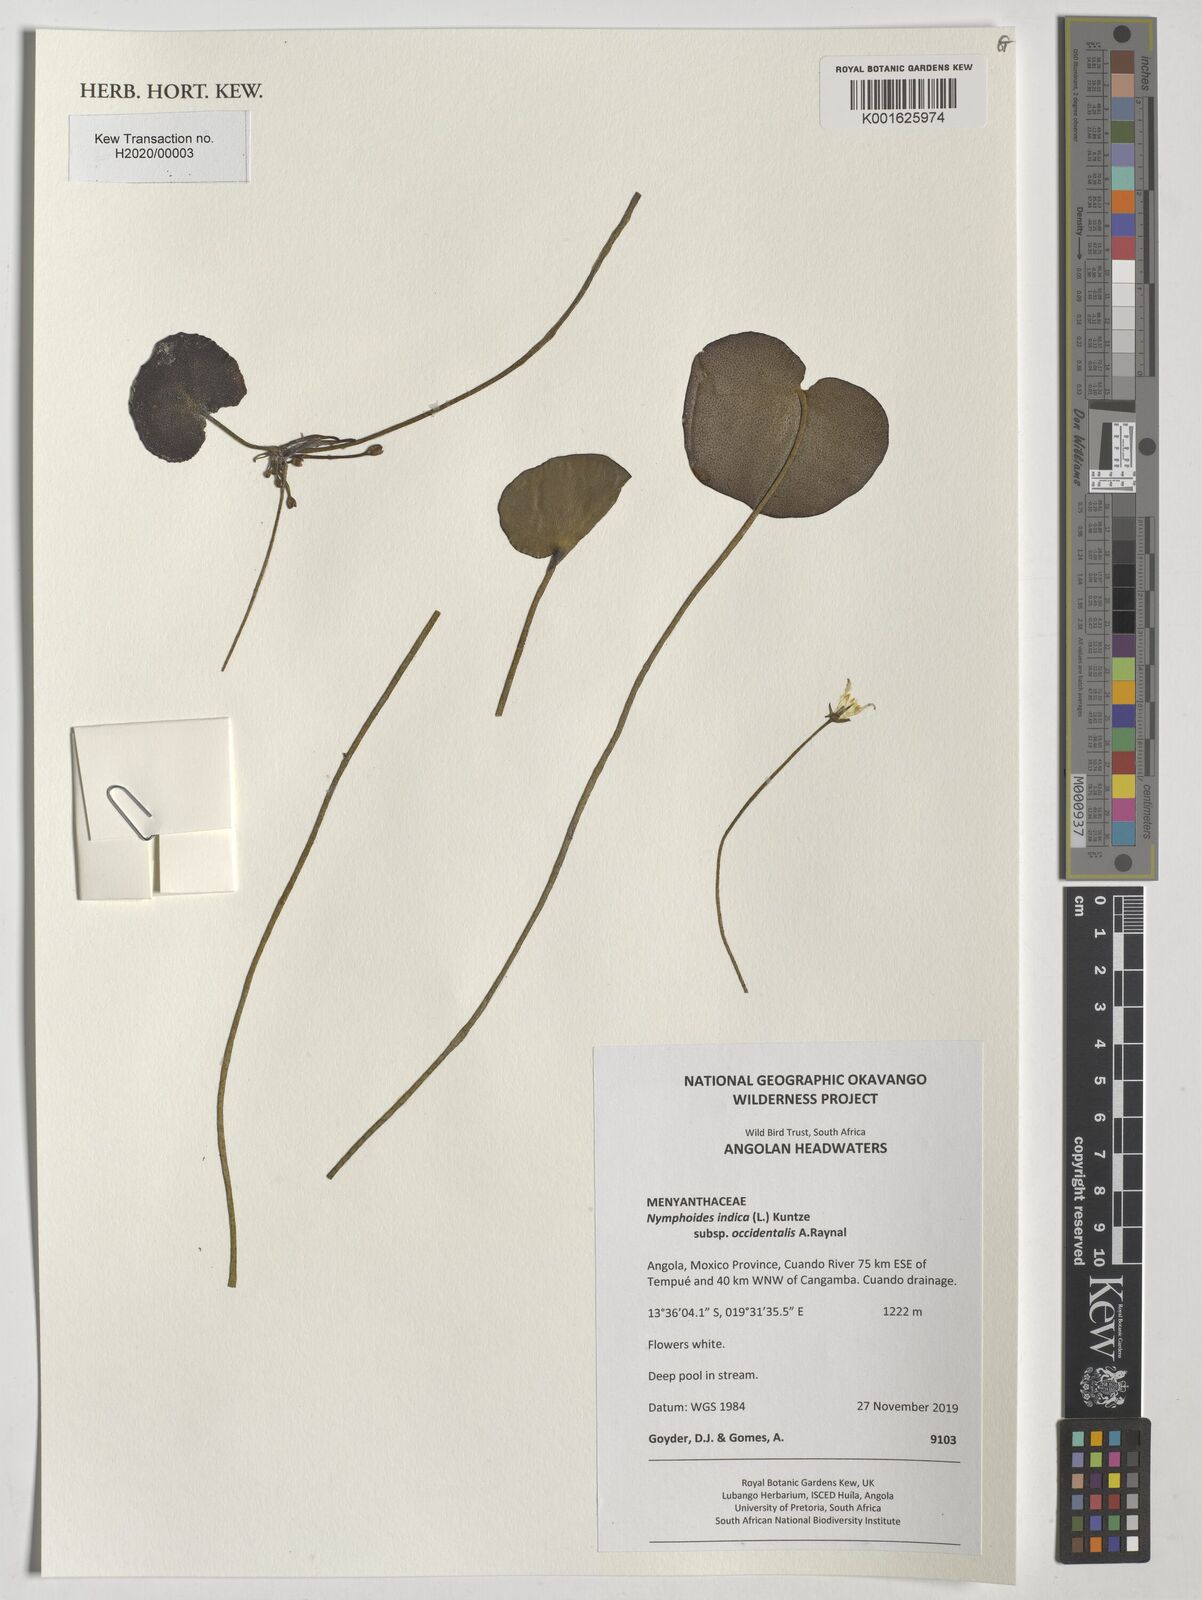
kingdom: Plantae
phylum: Tracheophyta
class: Magnoliopsida
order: Asterales
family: Menyanthaceae
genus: Nymphoides
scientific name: Nymphoides senegalensis
